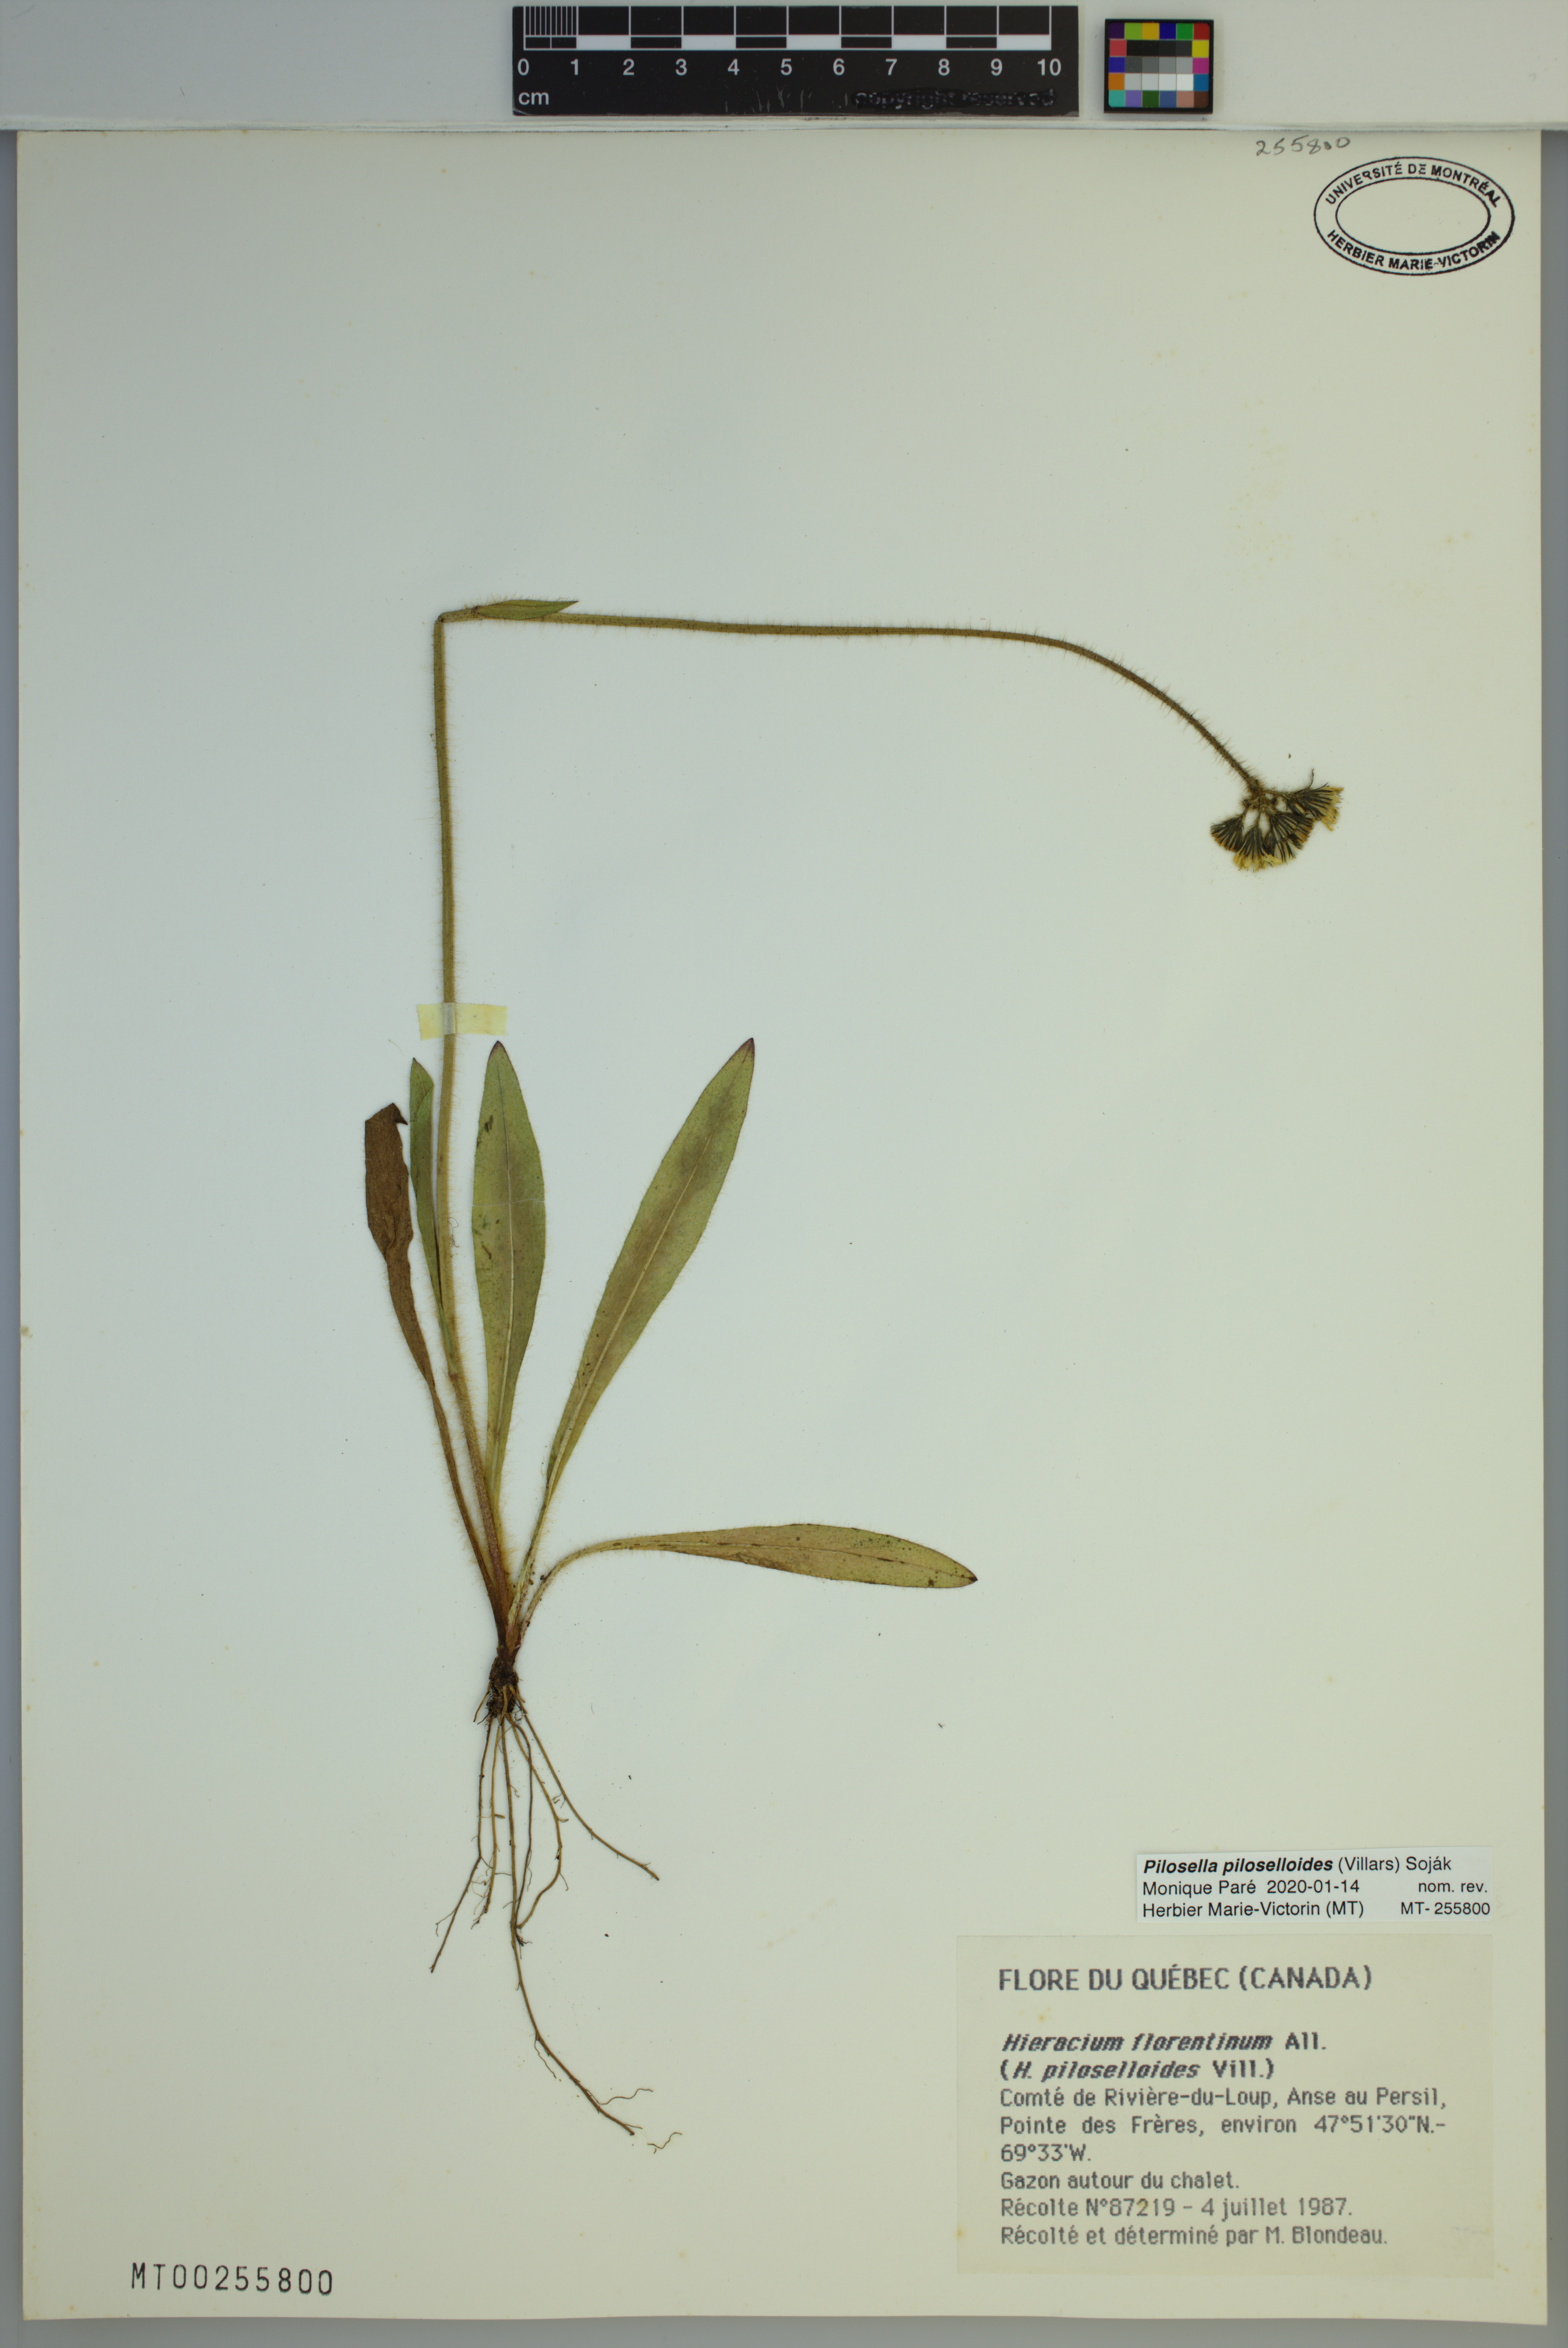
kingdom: Plantae
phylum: Tracheophyta
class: Magnoliopsida
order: Asterales
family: Asteraceae
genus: Pilosella
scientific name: Pilosella piloselloides
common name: Glaucous king-devil
